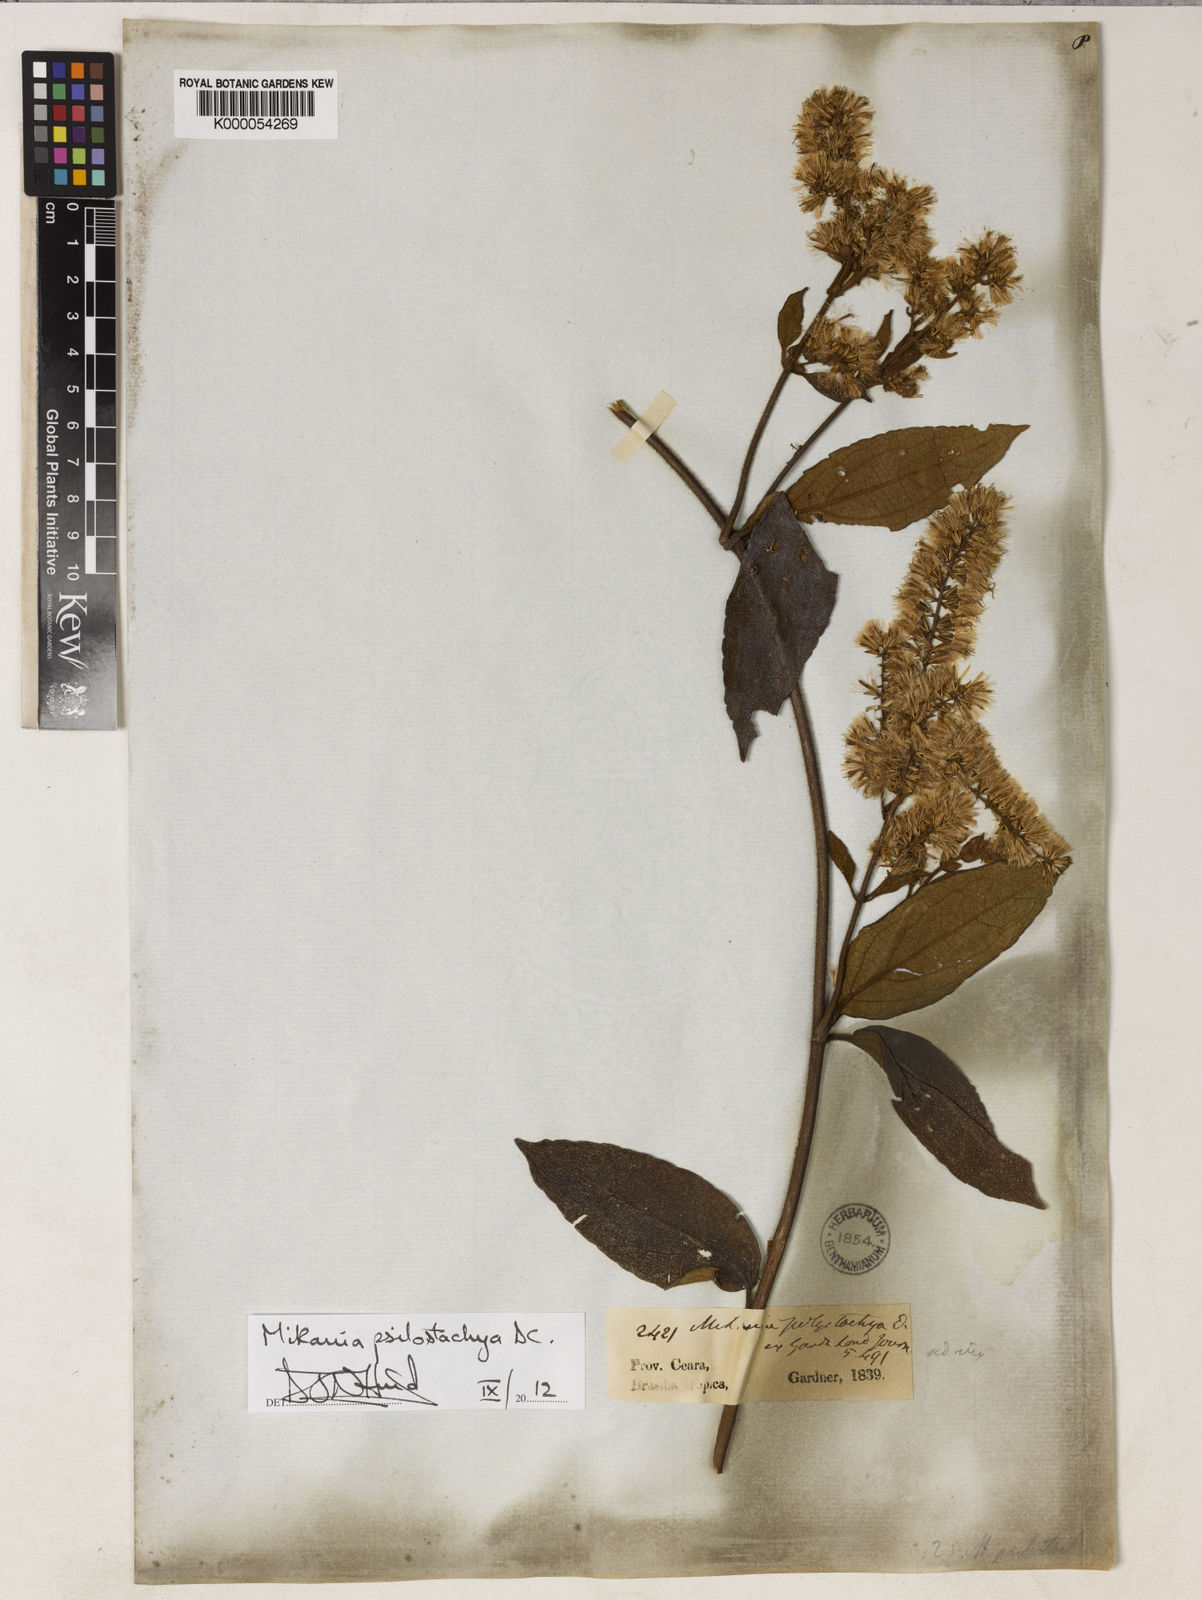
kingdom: Plantae
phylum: Tracheophyta
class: Magnoliopsida
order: Asterales
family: Asteraceae
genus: Mikania
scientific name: Mikania psilostachya
